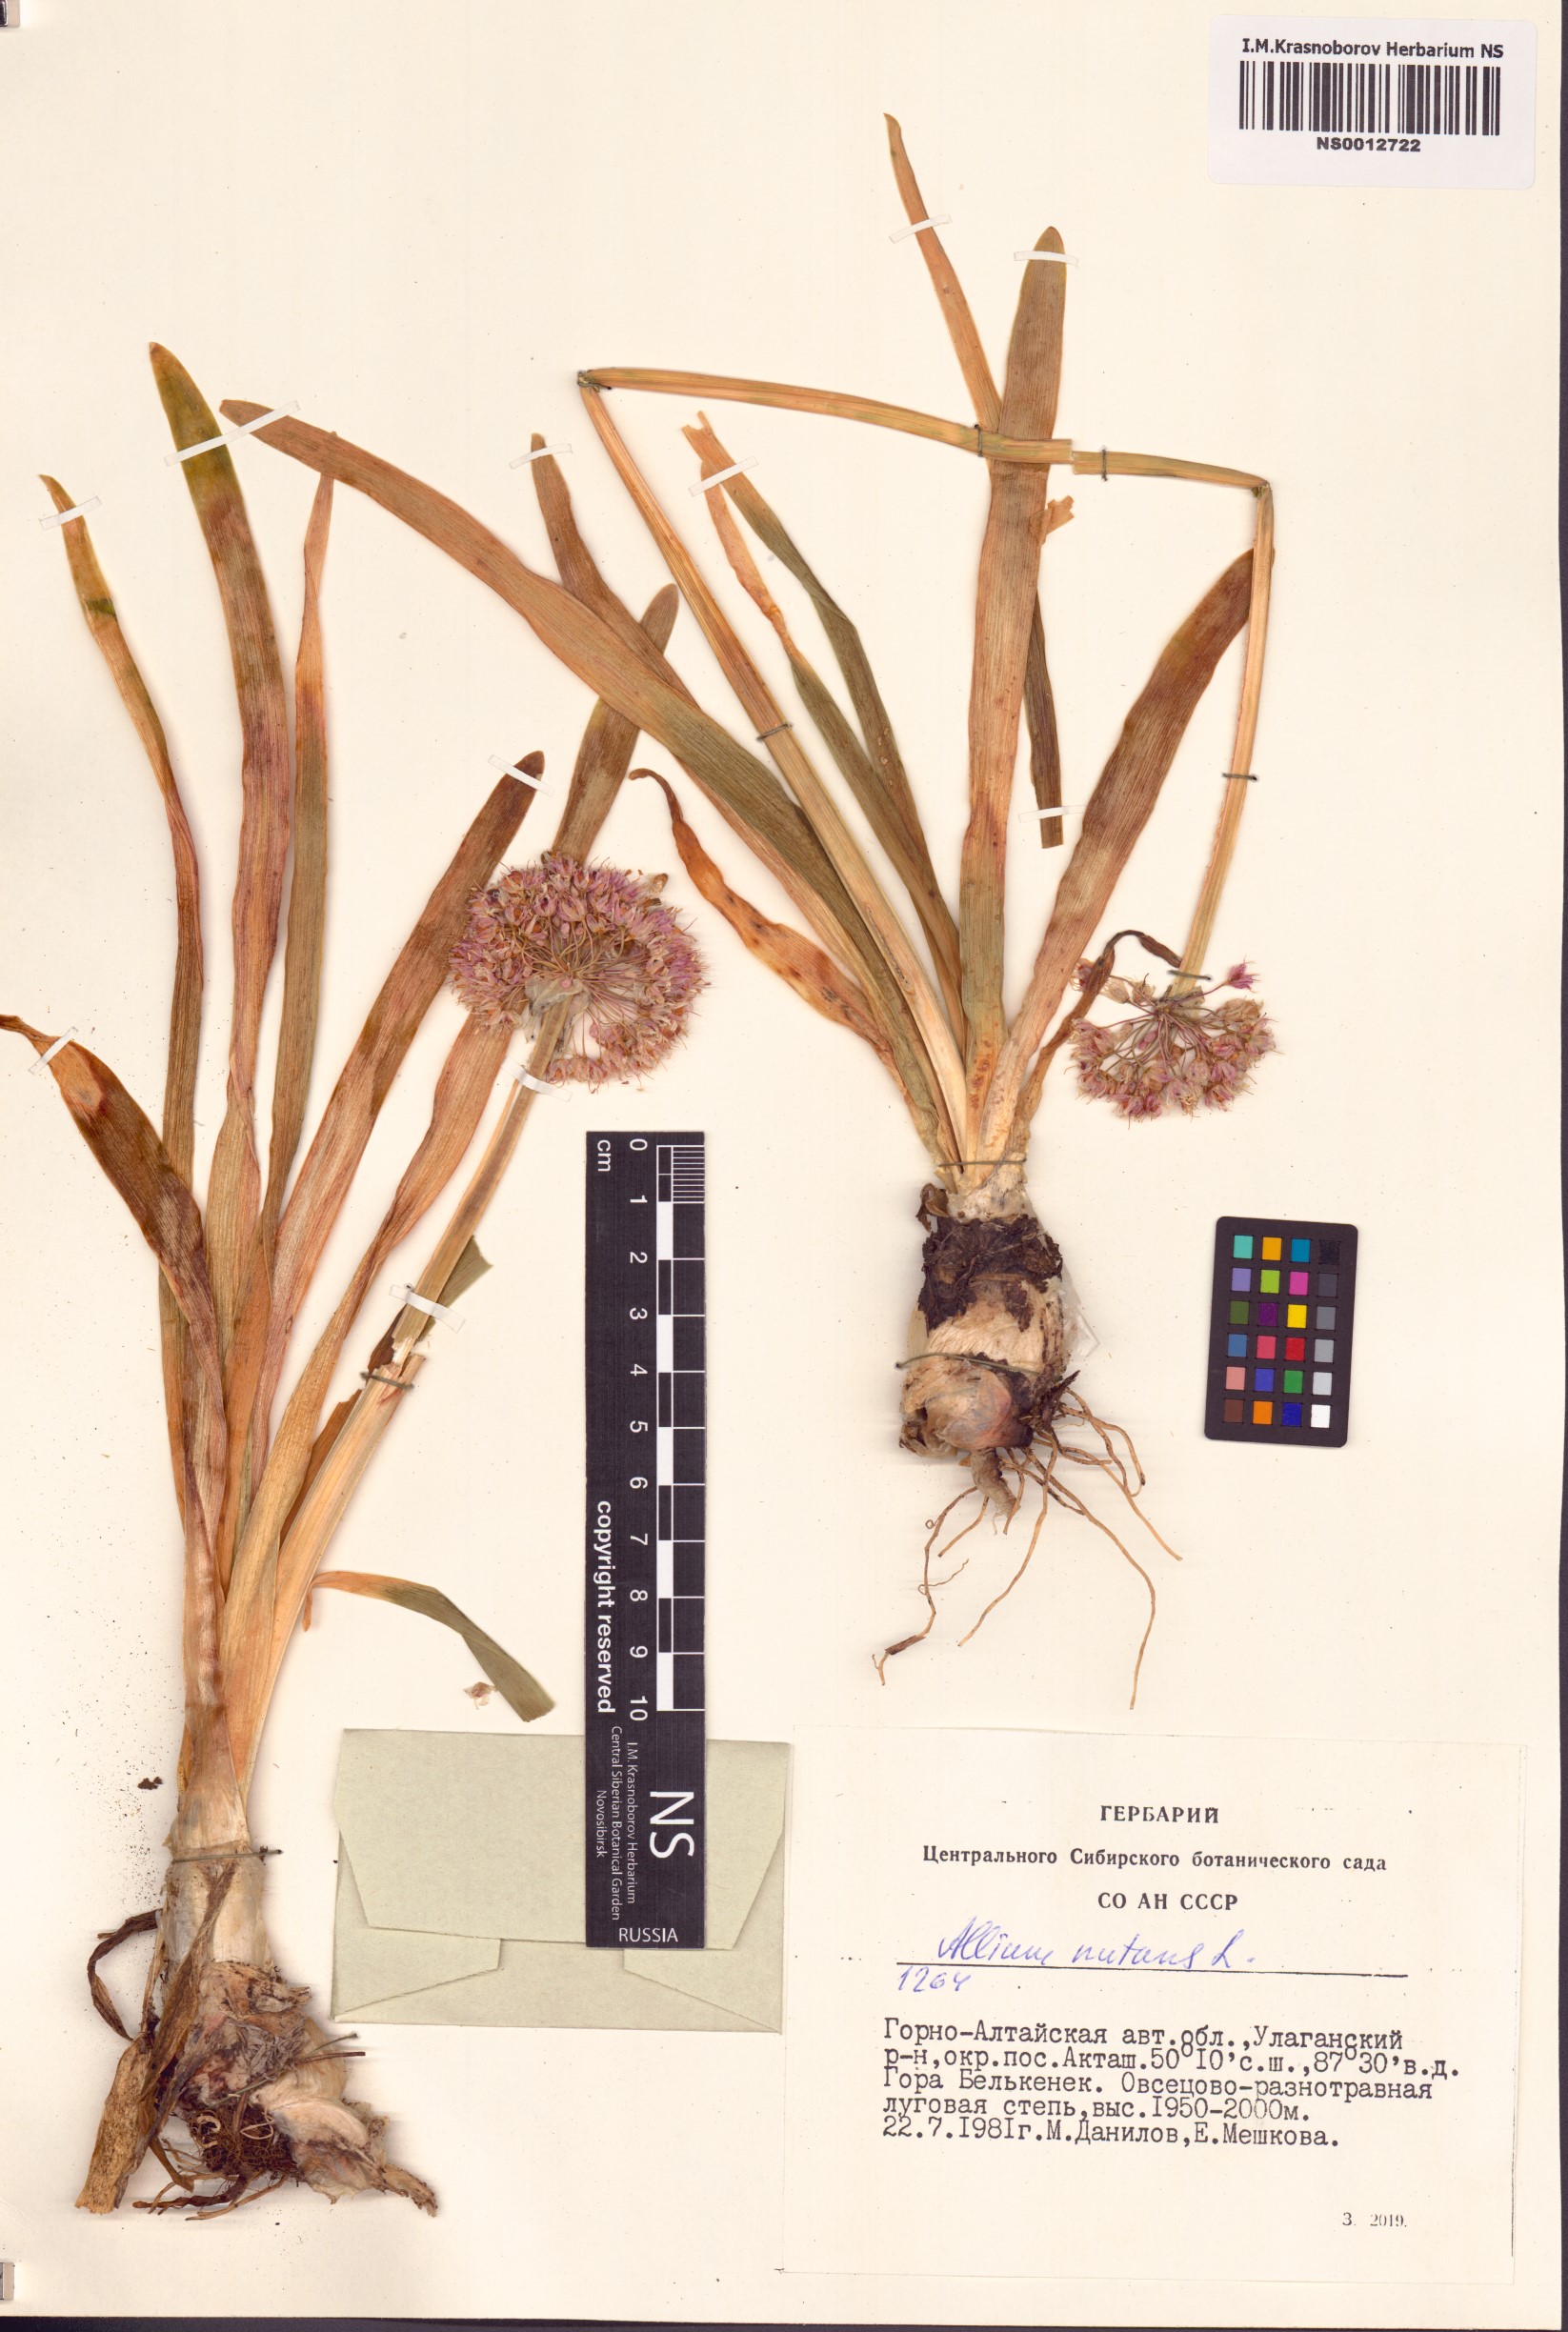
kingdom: Plantae
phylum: Tracheophyta
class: Liliopsida
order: Asparagales
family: Amaryllidaceae
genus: Allium
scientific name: Allium nutans
